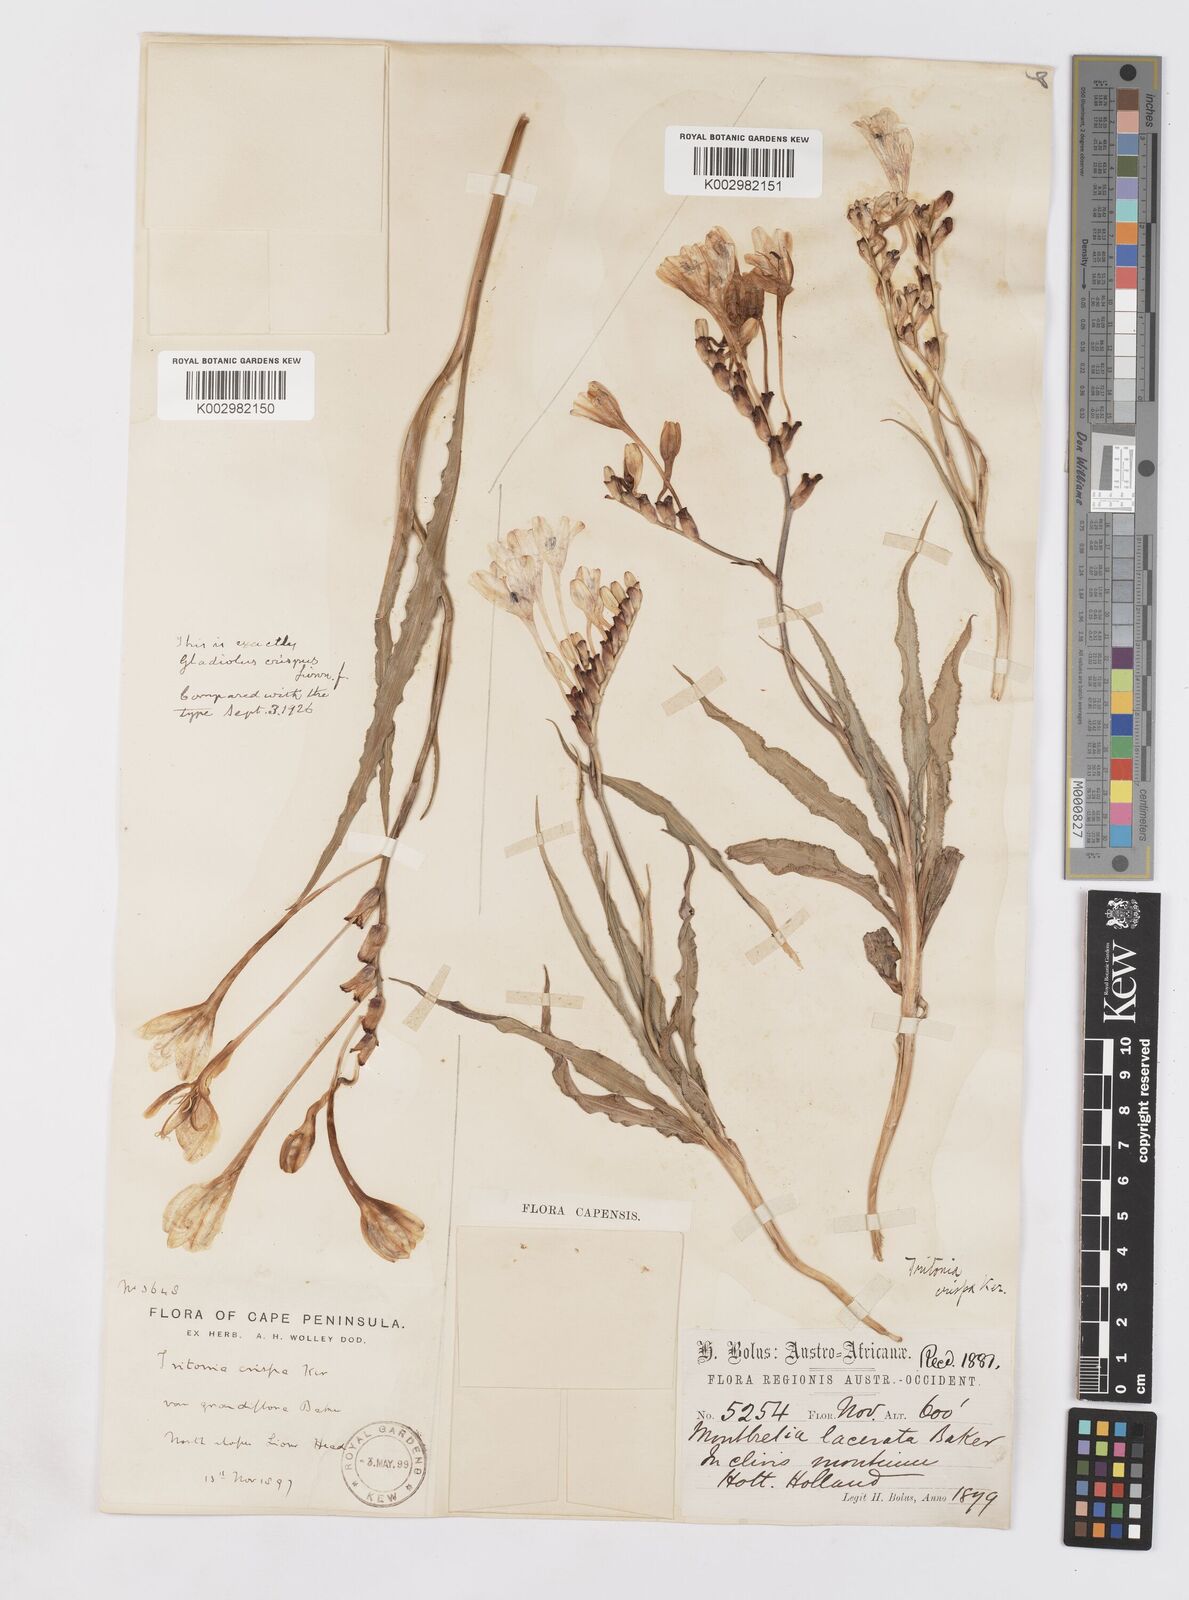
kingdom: Plantae
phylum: Tracheophyta
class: Liliopsida
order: Asparagales
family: Iridaceae
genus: Tritonia
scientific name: Tritonia undulata
